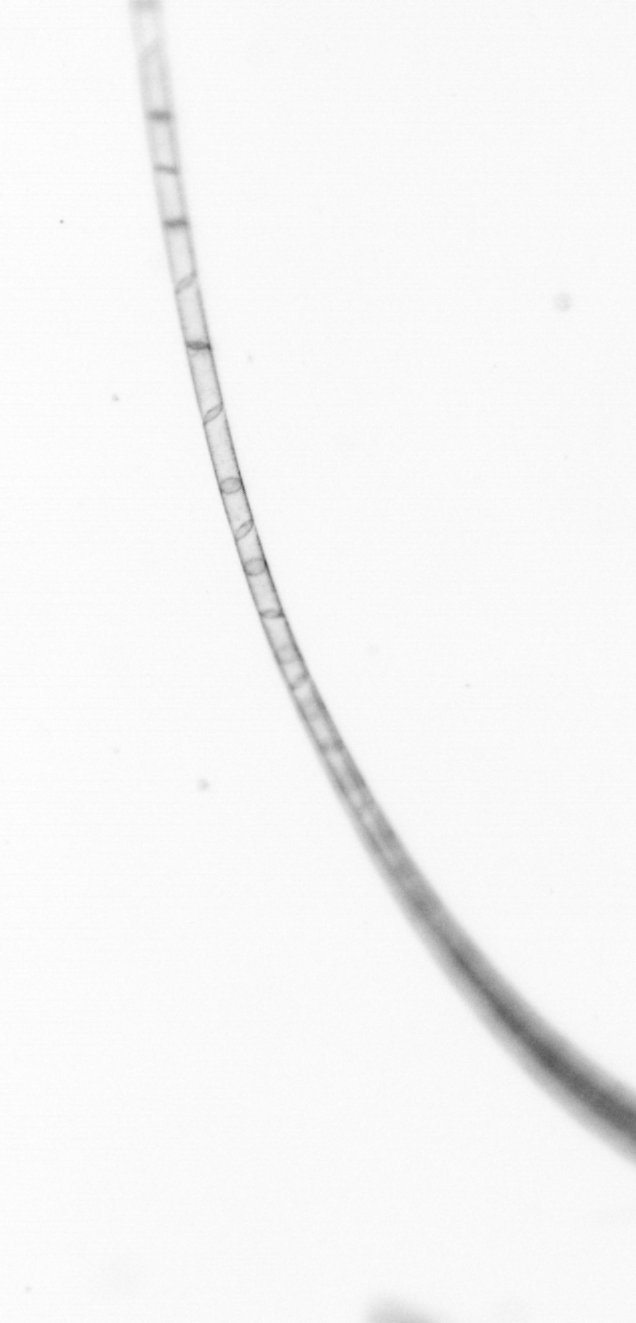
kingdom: Chromista
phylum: Ochrophyta
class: Bacillariophyceae
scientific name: Bacillariophyceae
